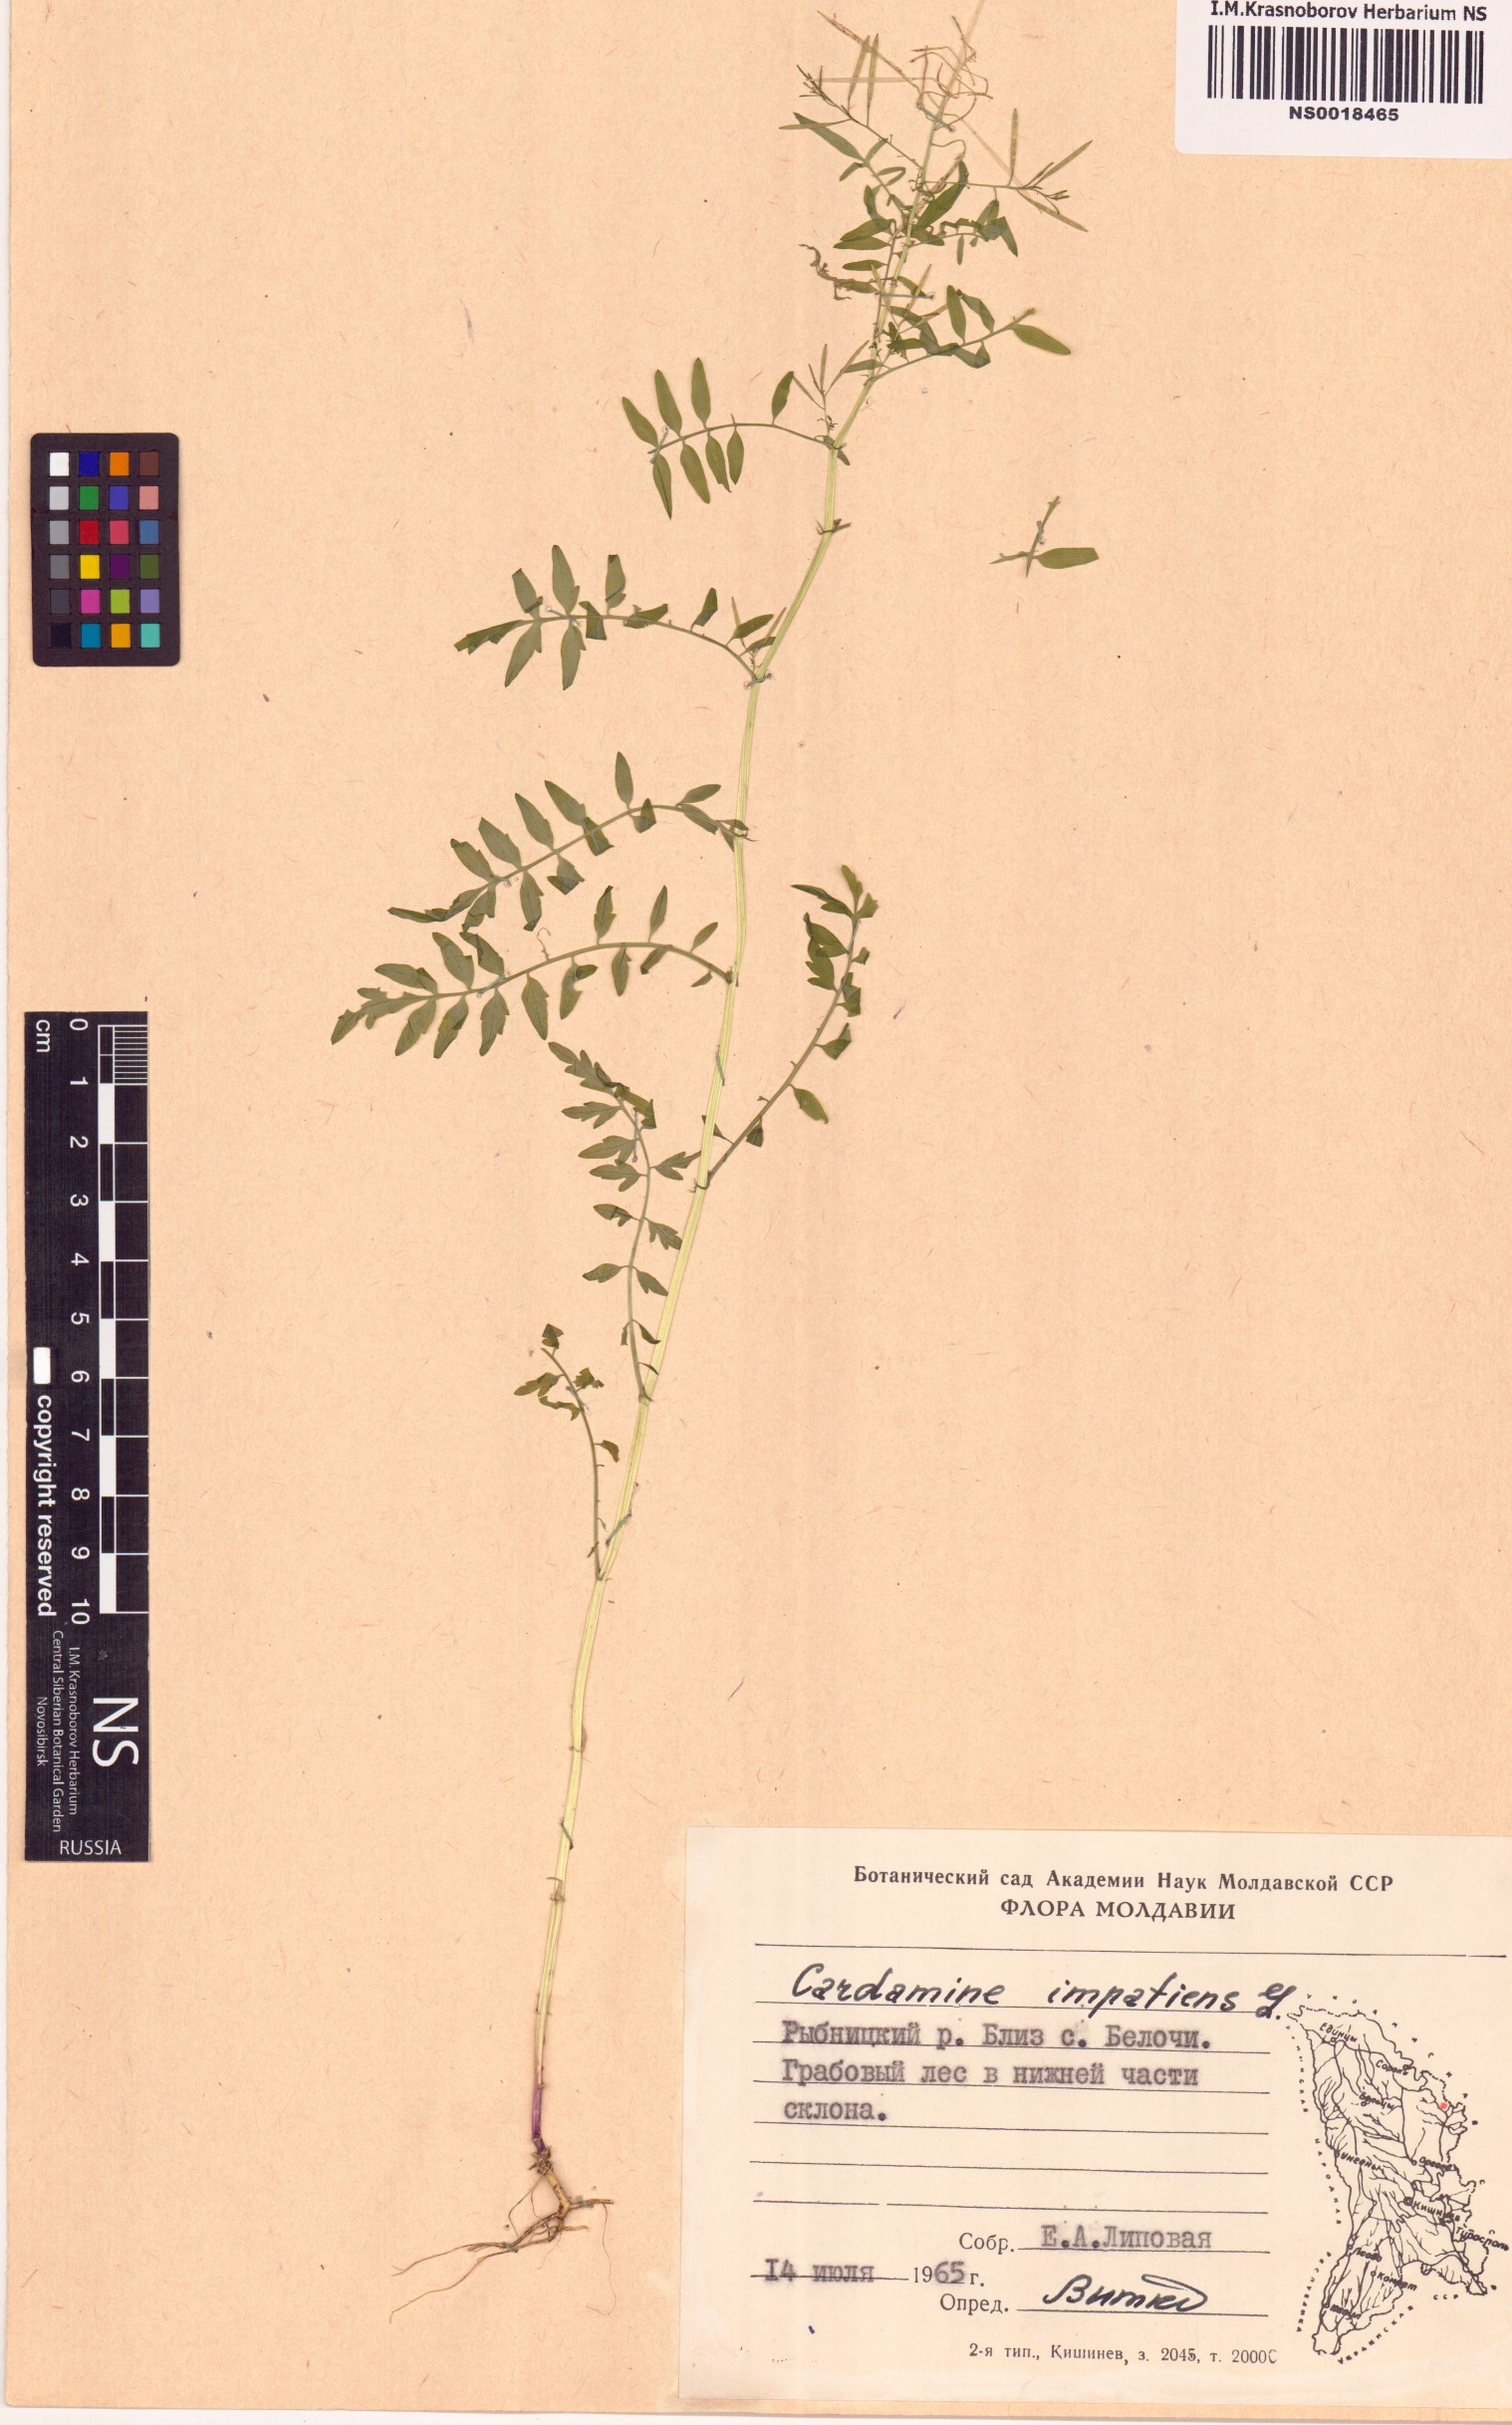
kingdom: Plantae
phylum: Tracheophyta
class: Magnoliopsida
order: Brassicales
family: Brassicaceae
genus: Cardamine
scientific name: Cardamine impatiens
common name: Narrow-leaved bitter-cress
